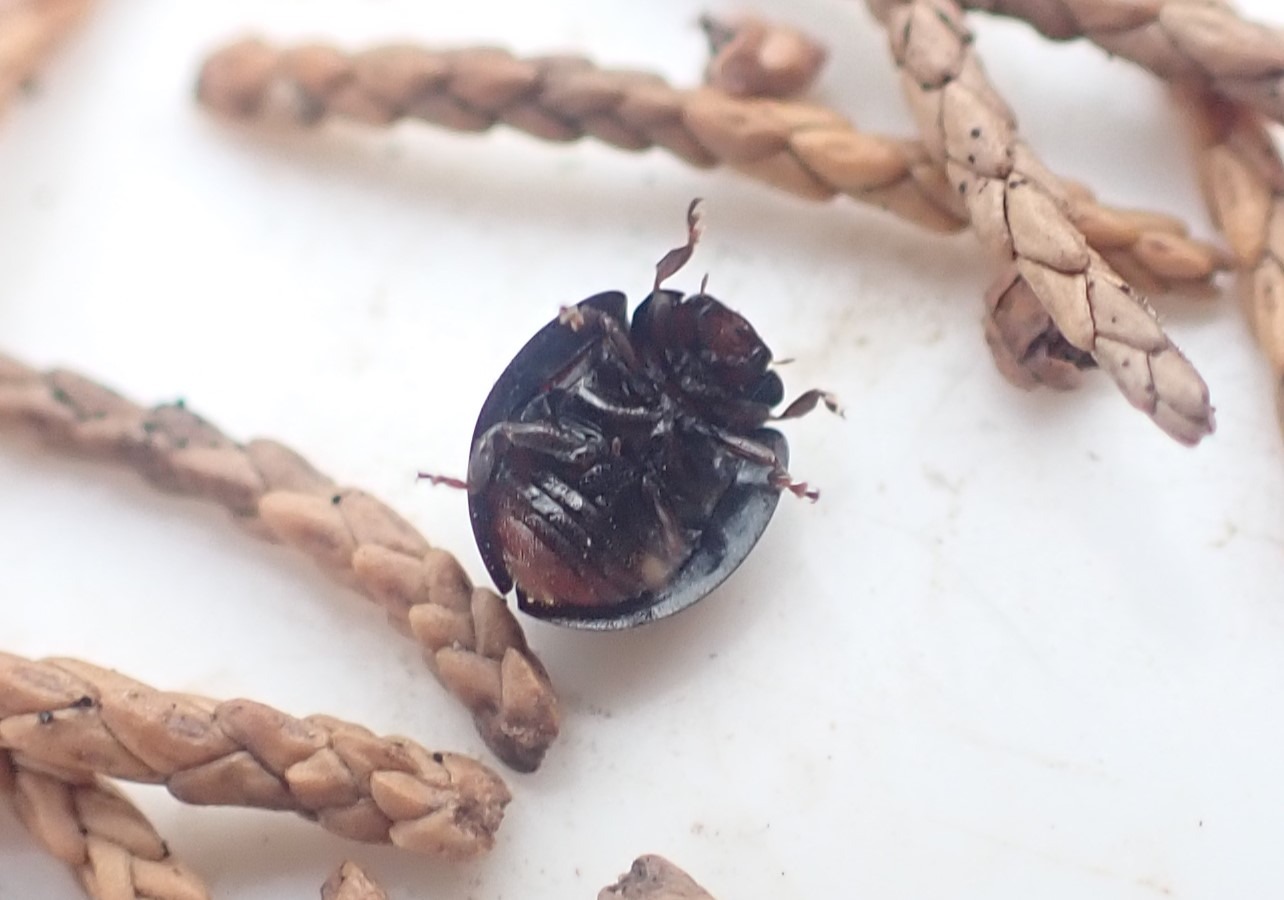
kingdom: Animalia
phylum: Arthropoda
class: Insecta
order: Coleoptera
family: Coccinellidae
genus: Chilocorus
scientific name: Chilocorus bipustulatus
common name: Lyngmariehøne
